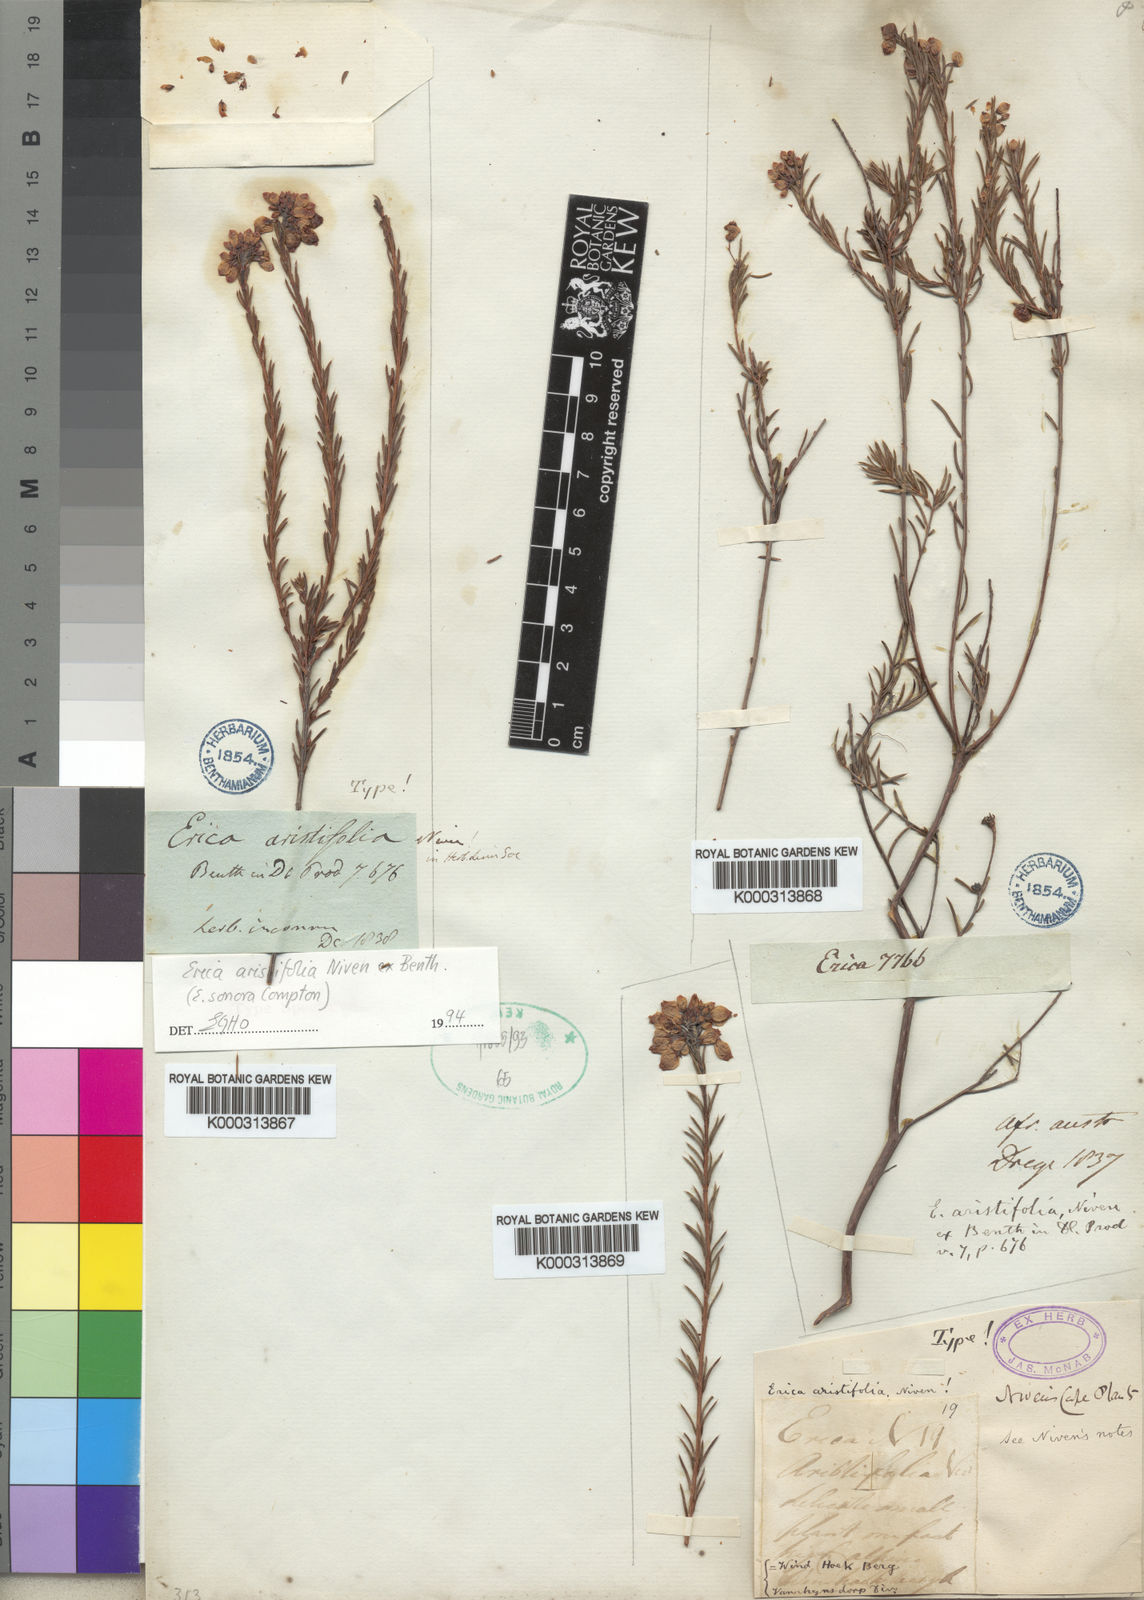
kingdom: Plantae
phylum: Tracheophyta
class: Magnoliopsida
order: Ericales
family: Ericaceae
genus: Erica
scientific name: Erica aristifolia
